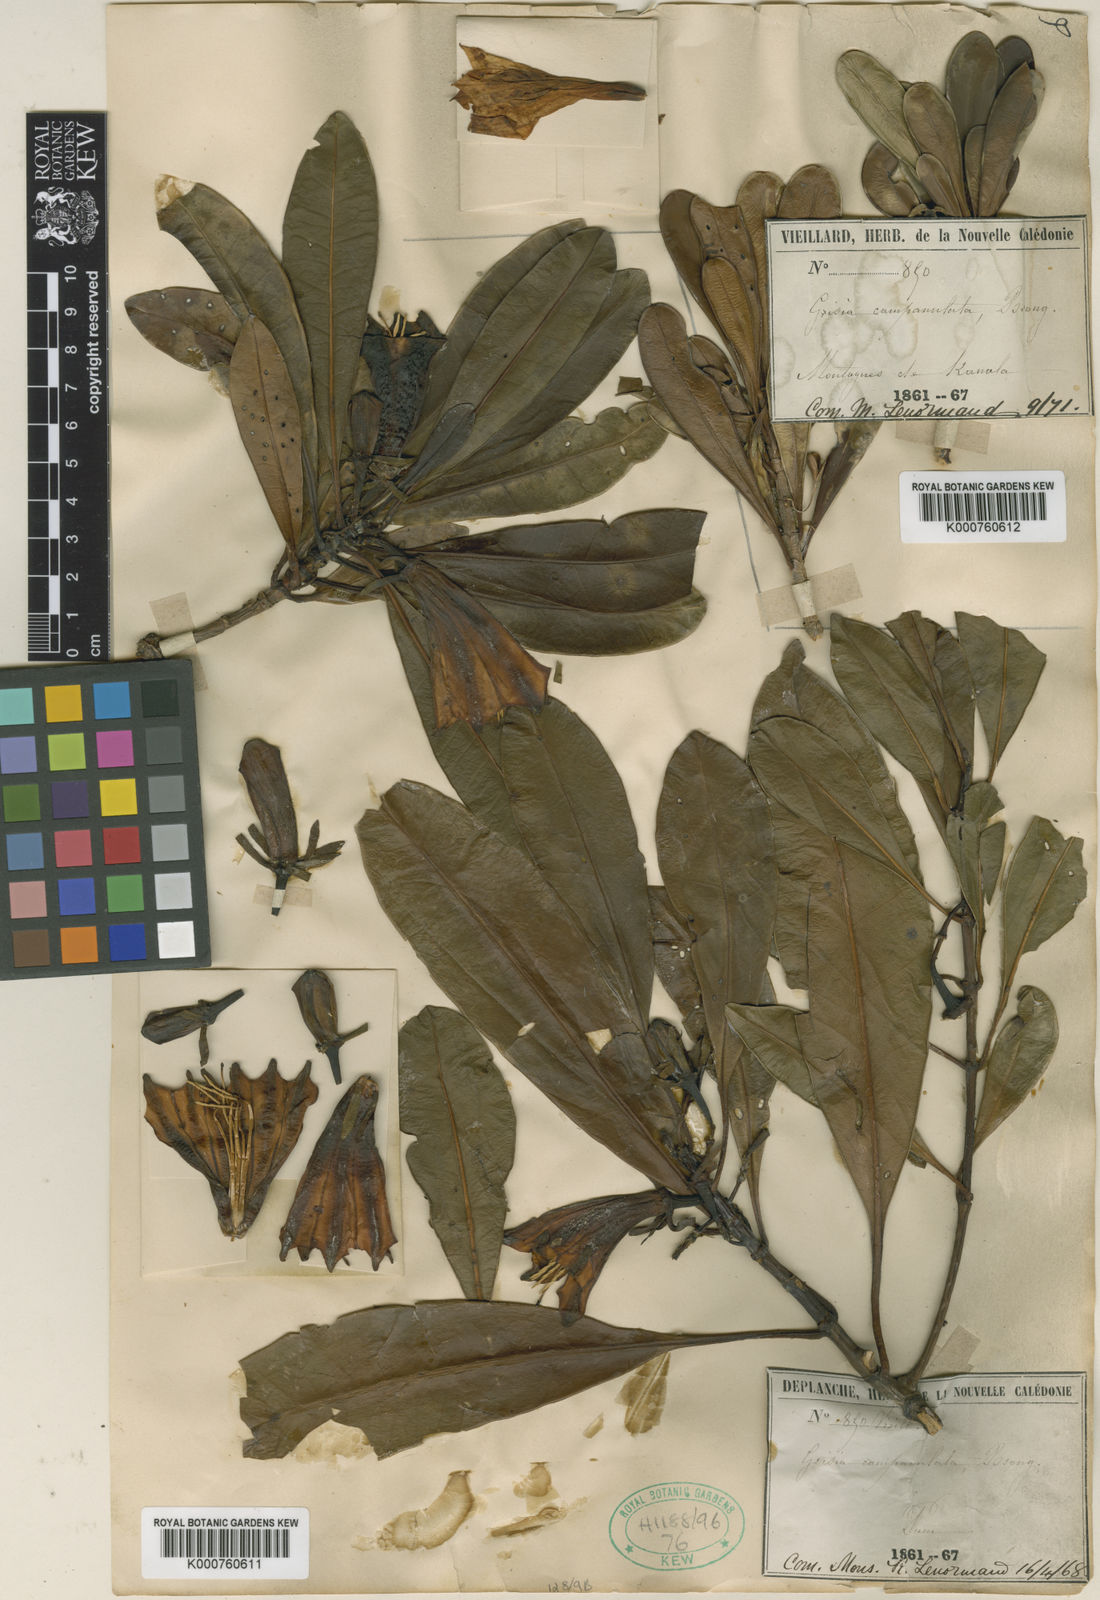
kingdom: Plantae
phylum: Tracheophyta
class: Magnoliopsida
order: Gentianales
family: Rubiaceae
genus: Thiollierea
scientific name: Thiollierea campanulata
